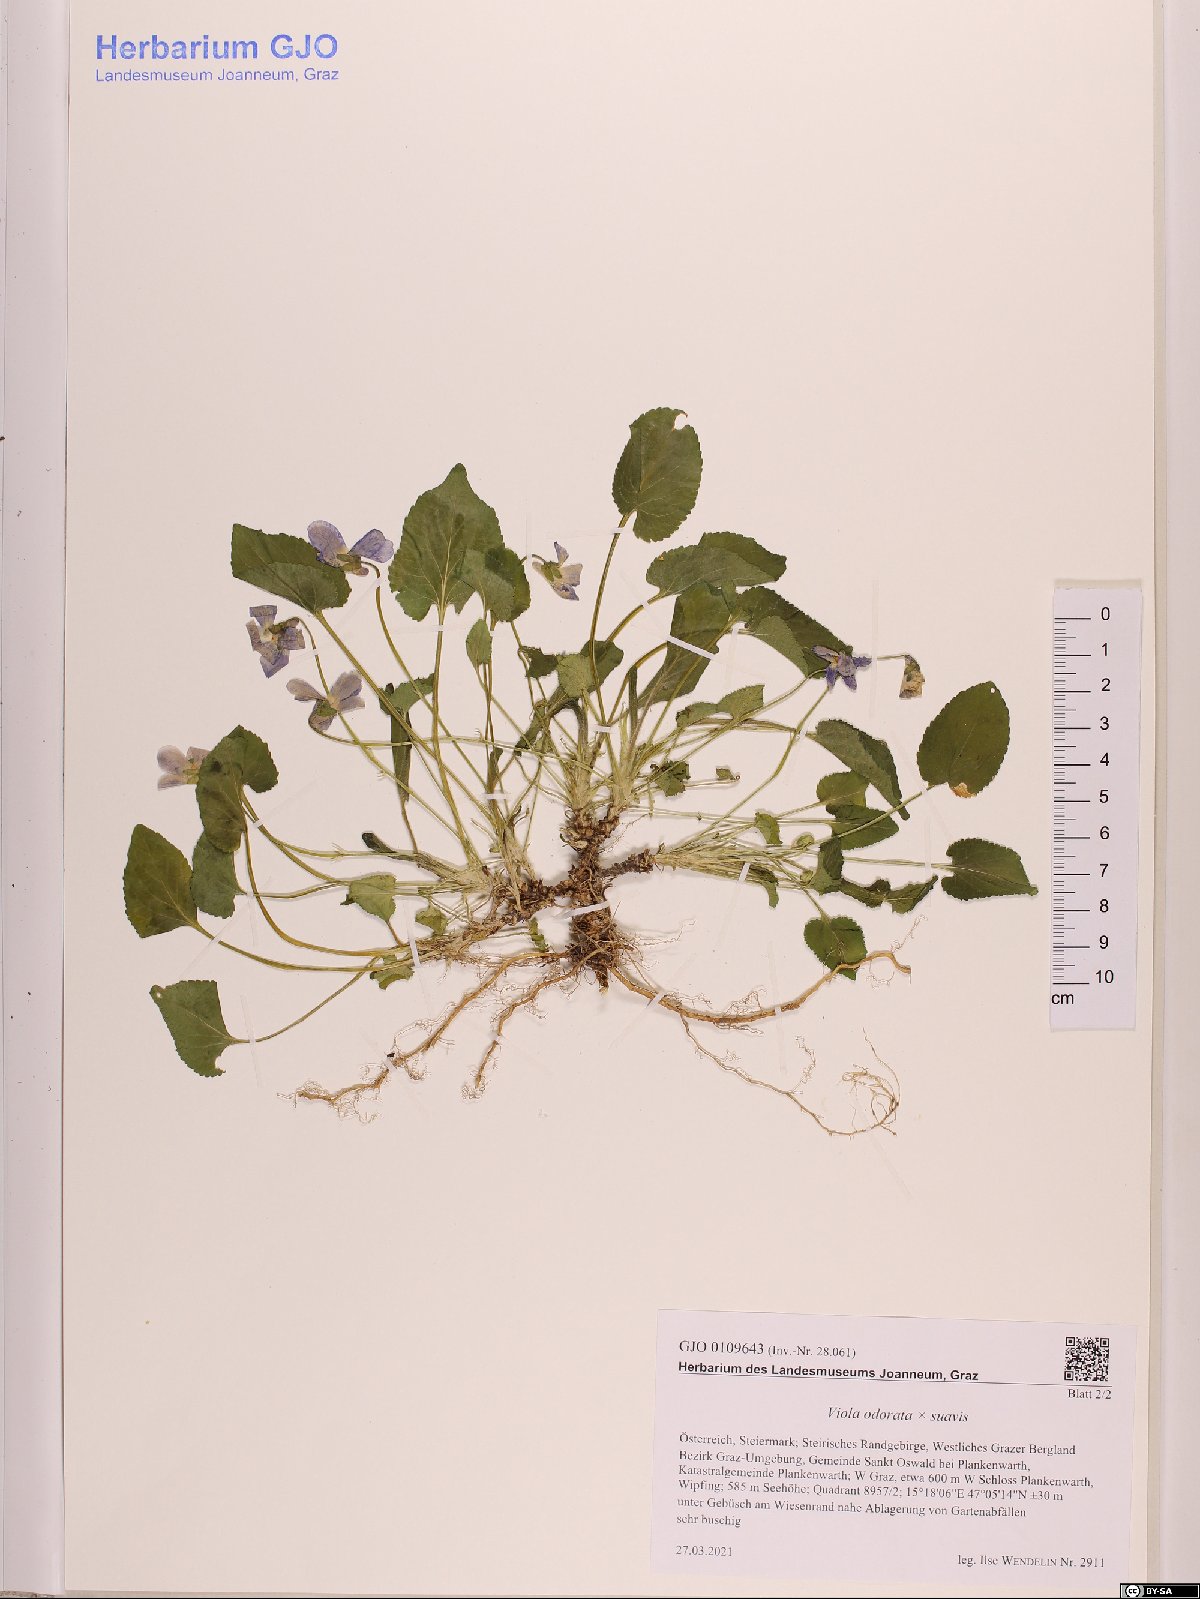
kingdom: Plantae
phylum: Tracheophyta
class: Magnoliopsida
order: Malpighiales
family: Violaceae
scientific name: Violaceae
